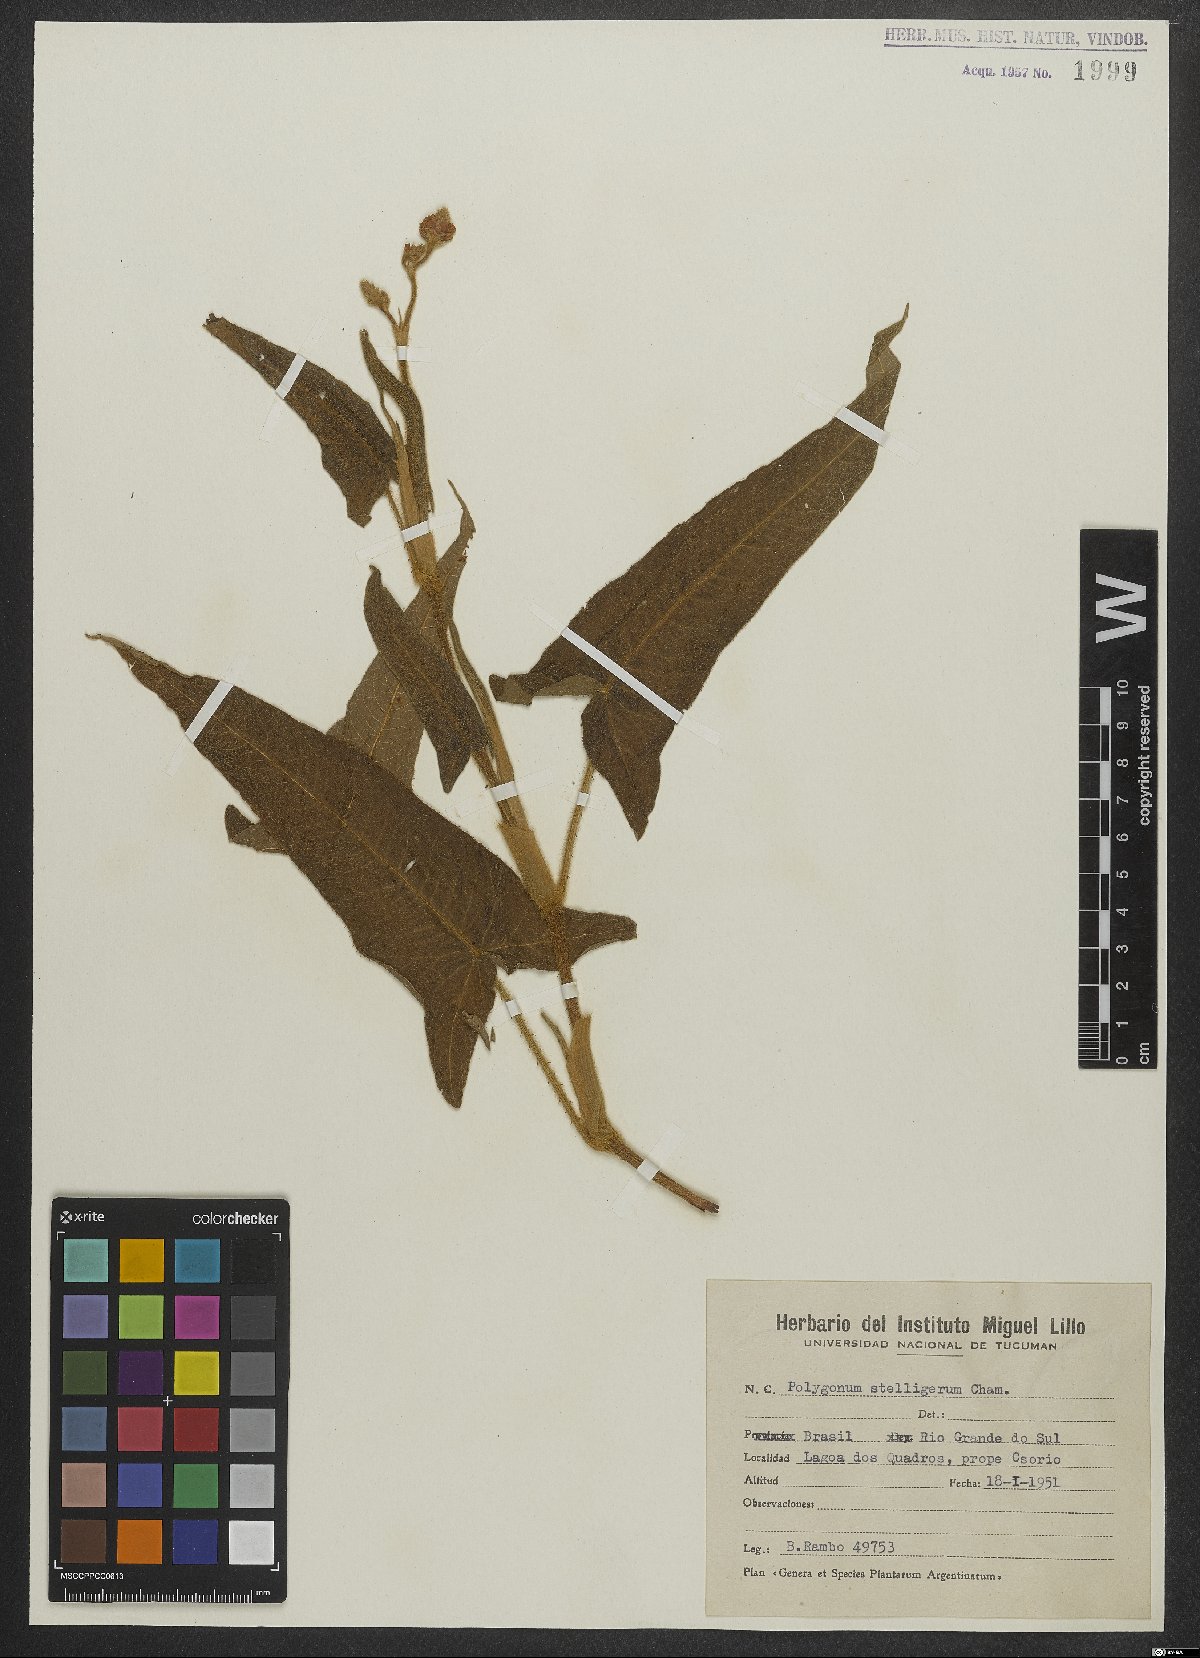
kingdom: Plantae
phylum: Tracheophyta
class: Magnoliopsida
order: Caryophyllales
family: Polygonaceae
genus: Persicaria
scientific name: Persicaria stelligera
